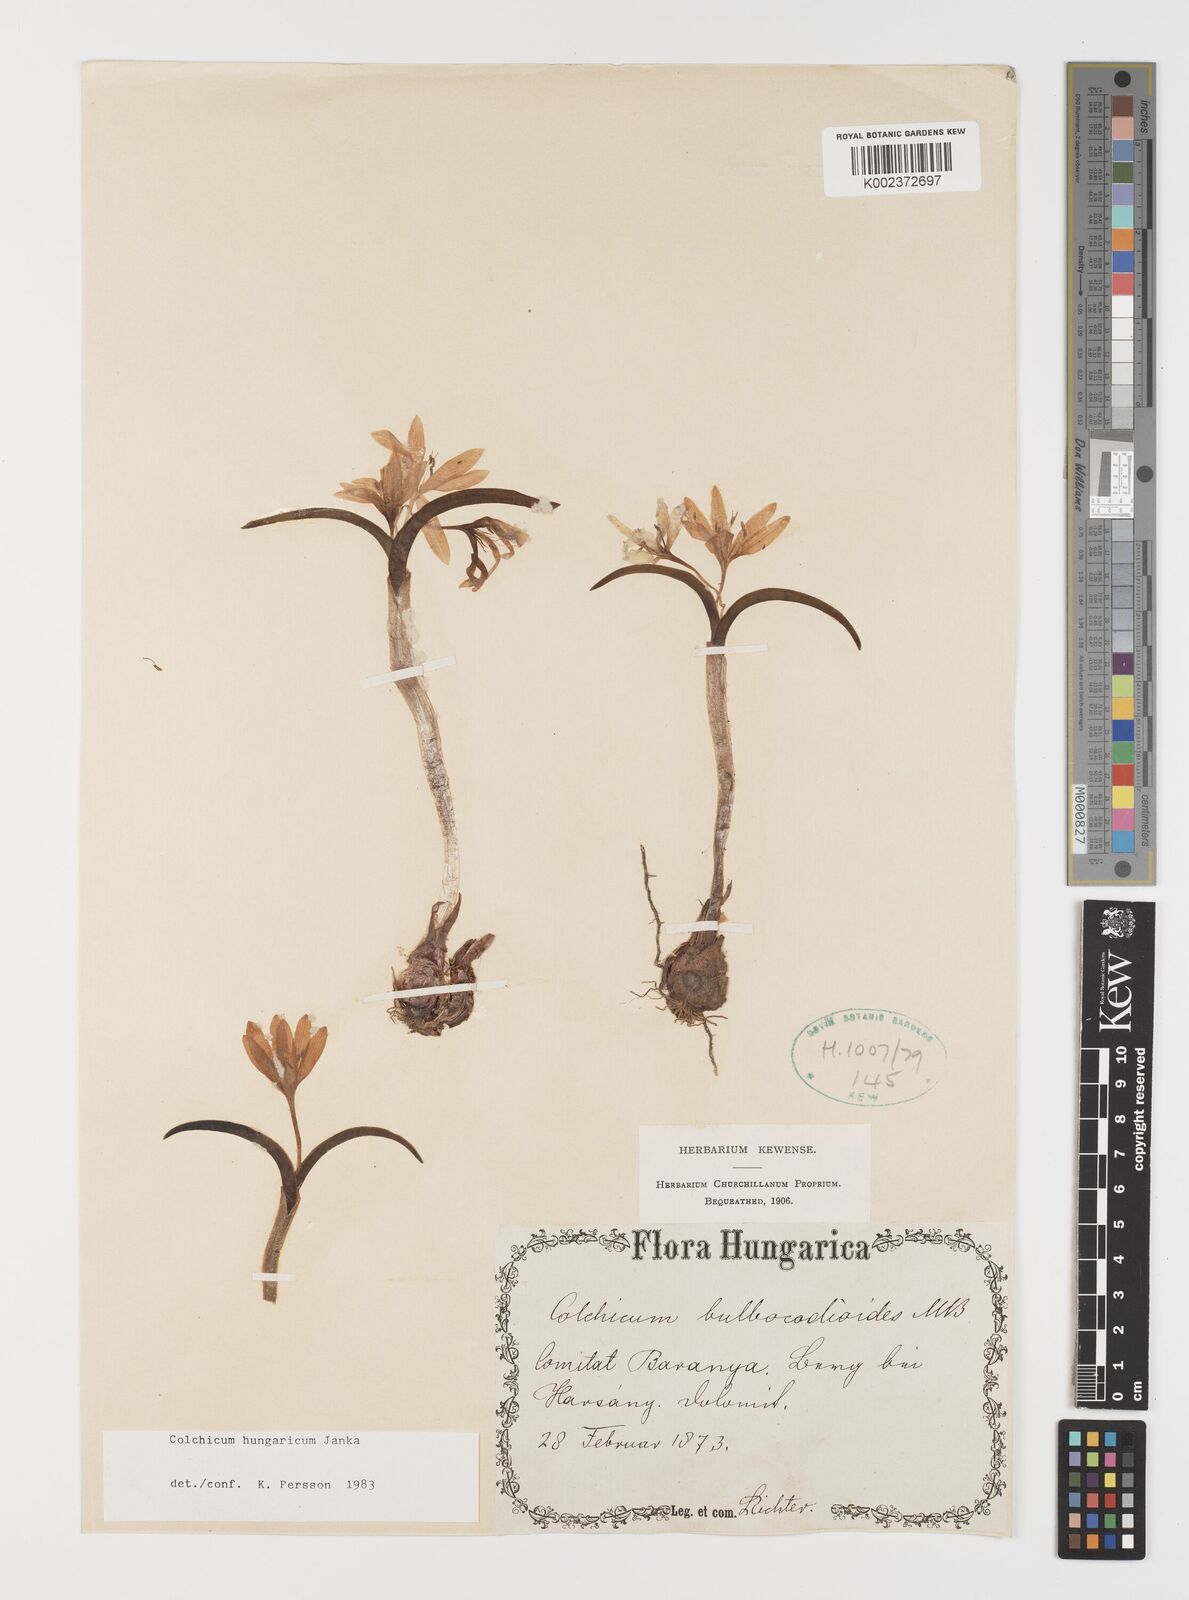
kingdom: Plantae
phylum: Tracheophyta
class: Liliopsida
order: Liliales
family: Colchicaceae
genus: Colchicum
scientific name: Colchicum hungaricum
